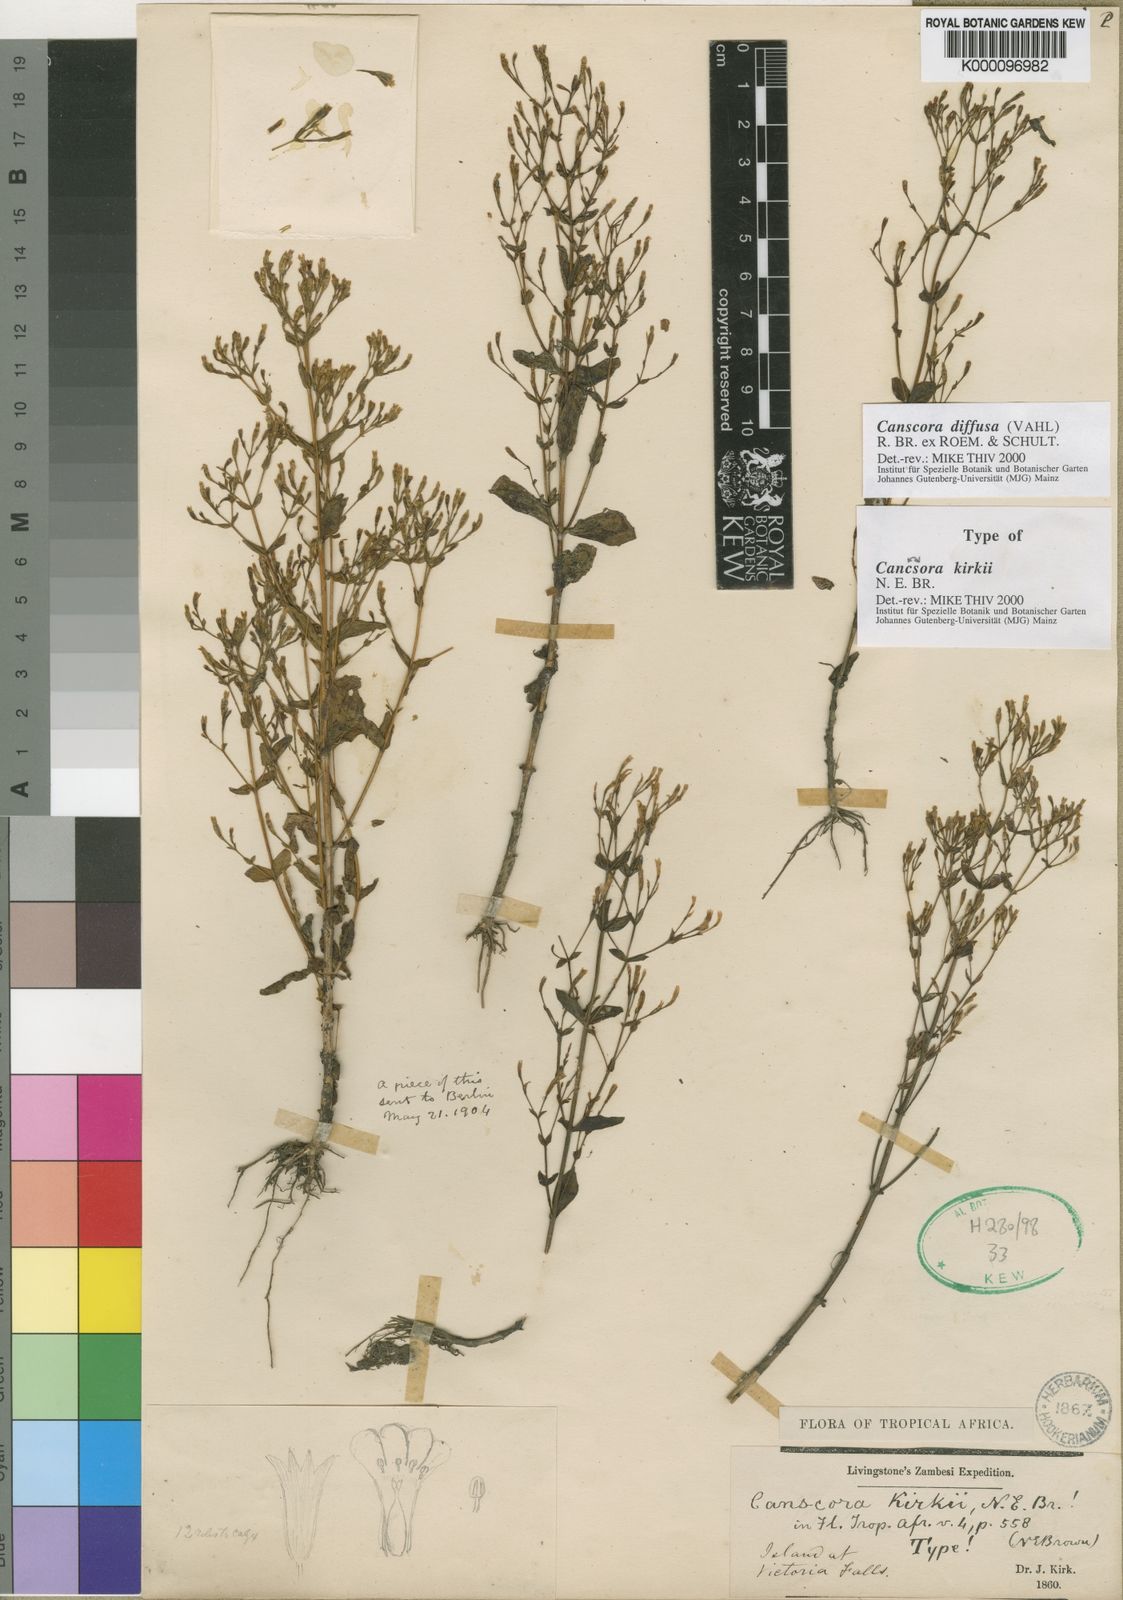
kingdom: Plantae
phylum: Tracheophyta
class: Magnoliopsida
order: Gentianales
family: Gentianaceae
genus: Canscora
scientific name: Canscora diffusa
